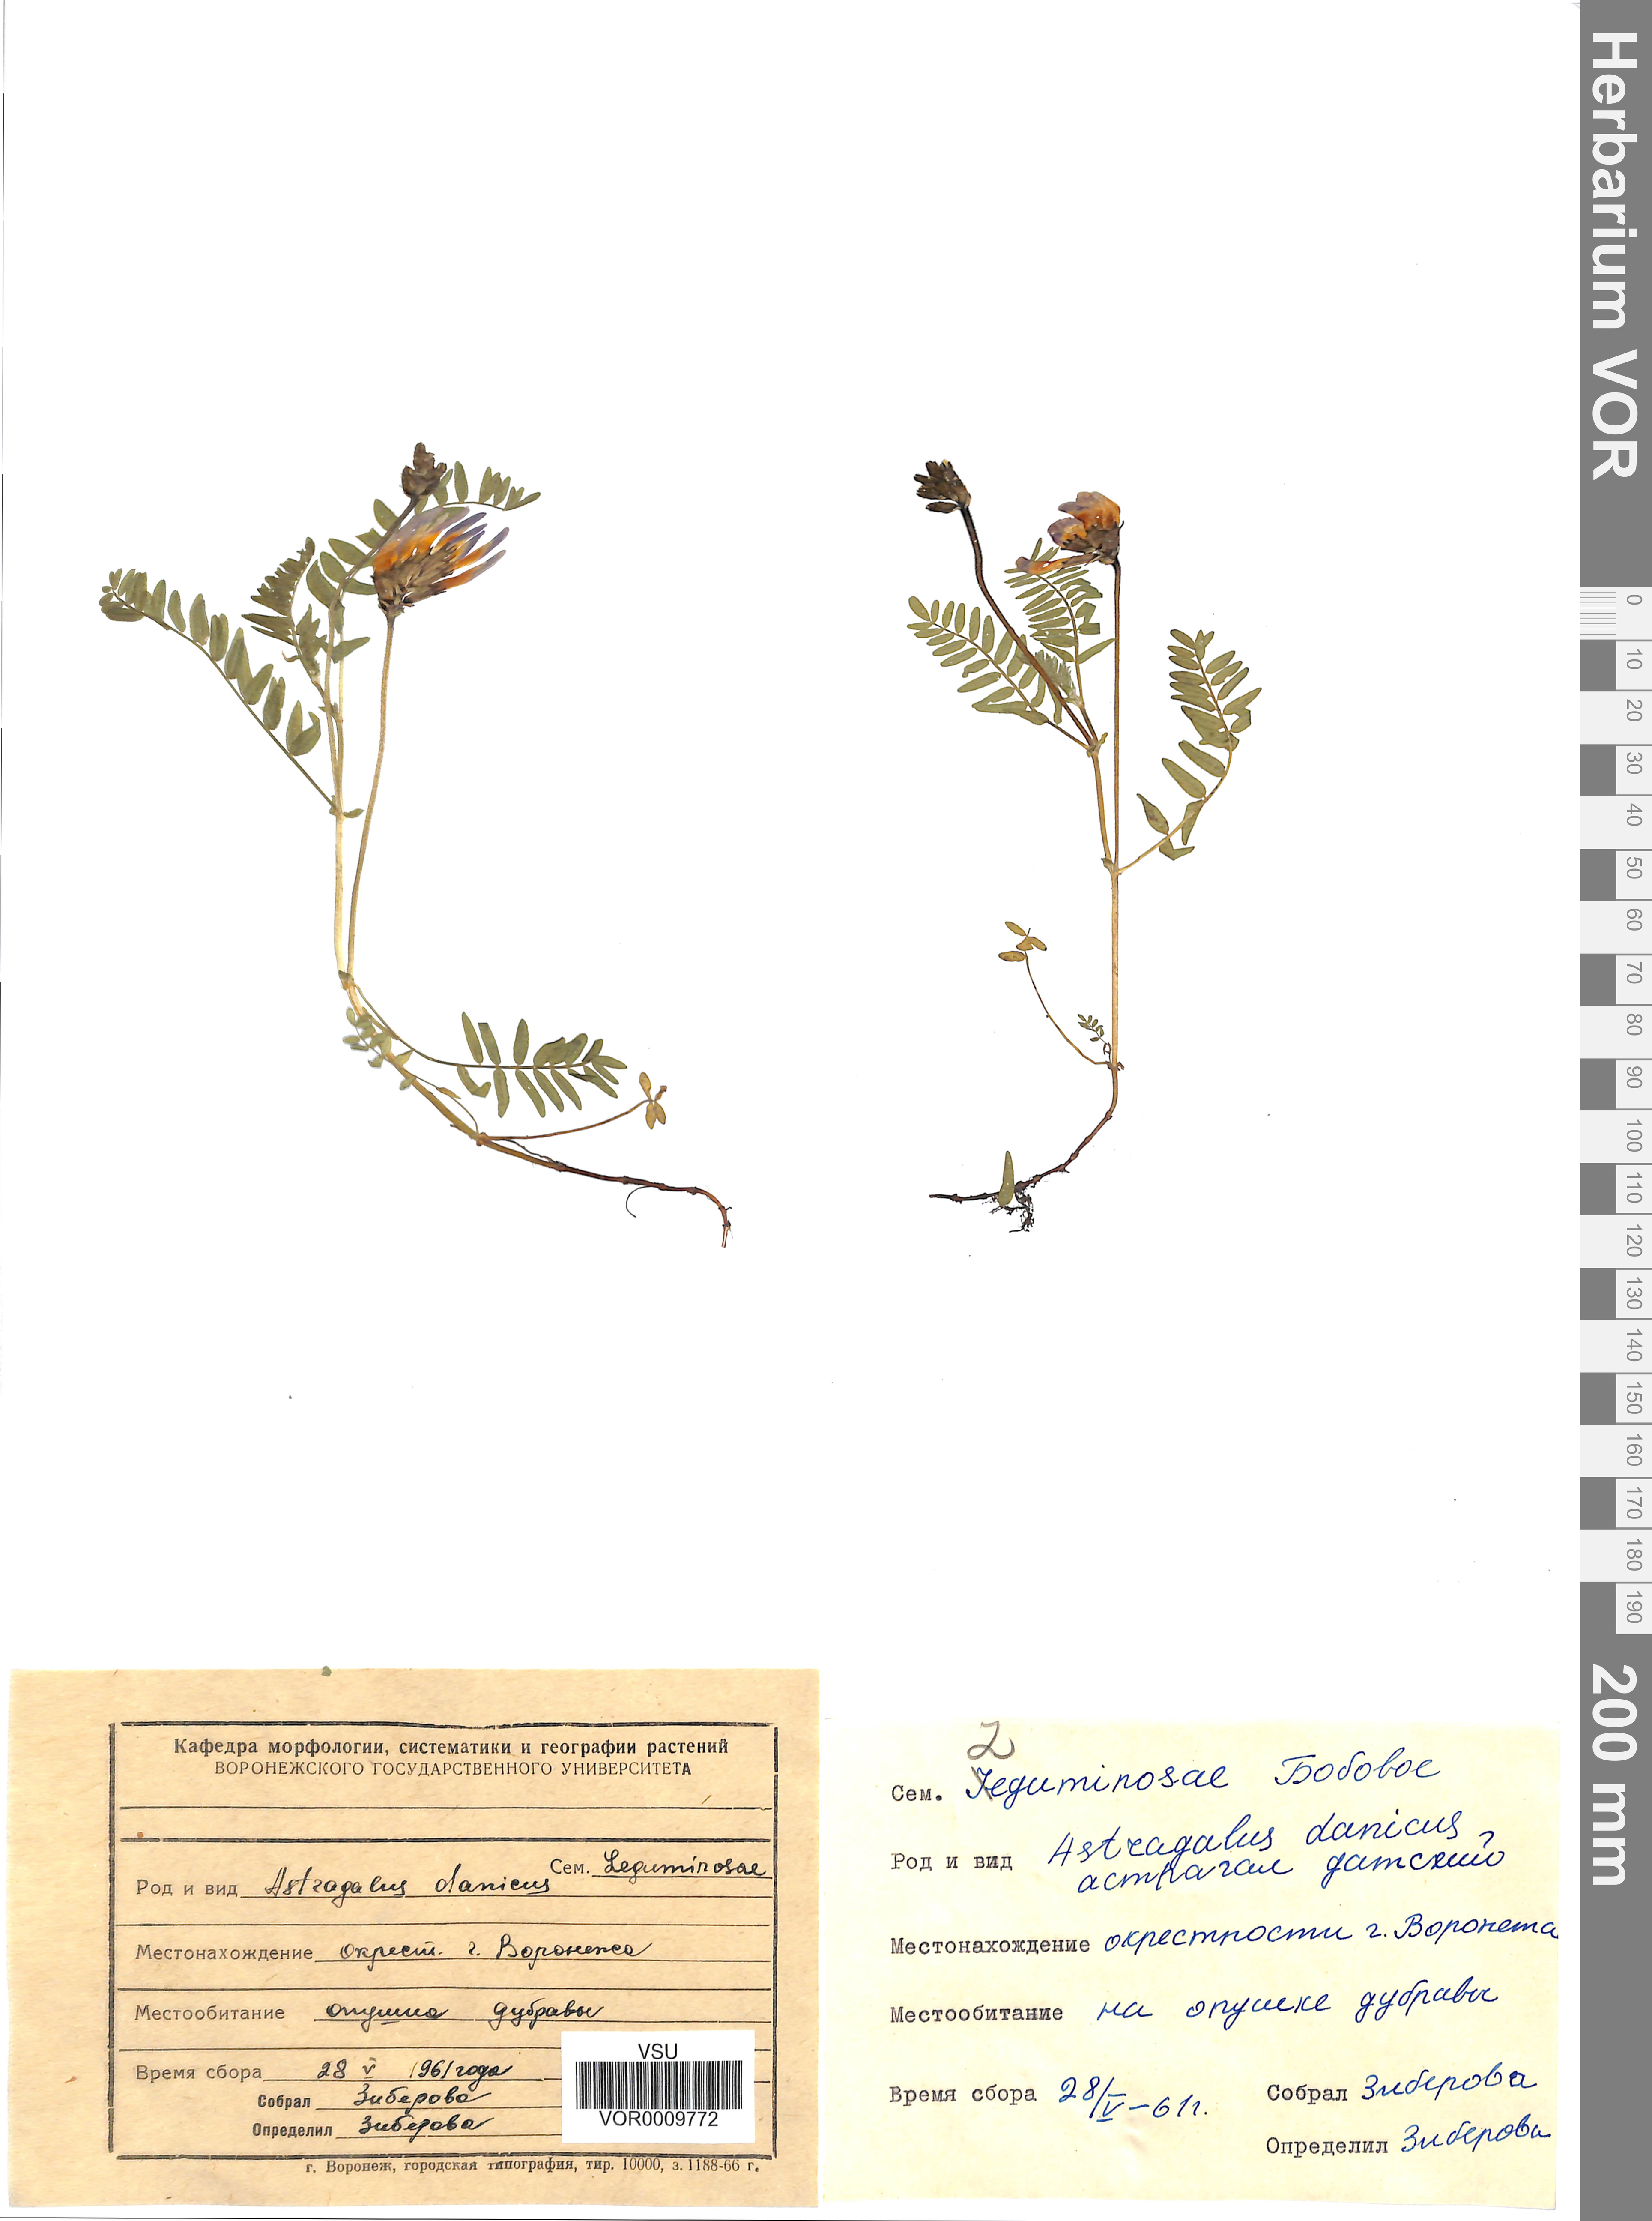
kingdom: Plantae
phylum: Tracheophyta
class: Magnoliopsida
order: Fabales
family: Fabaceae
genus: Astragalus
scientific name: Astragalus danicus
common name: Purple milk-vetch
